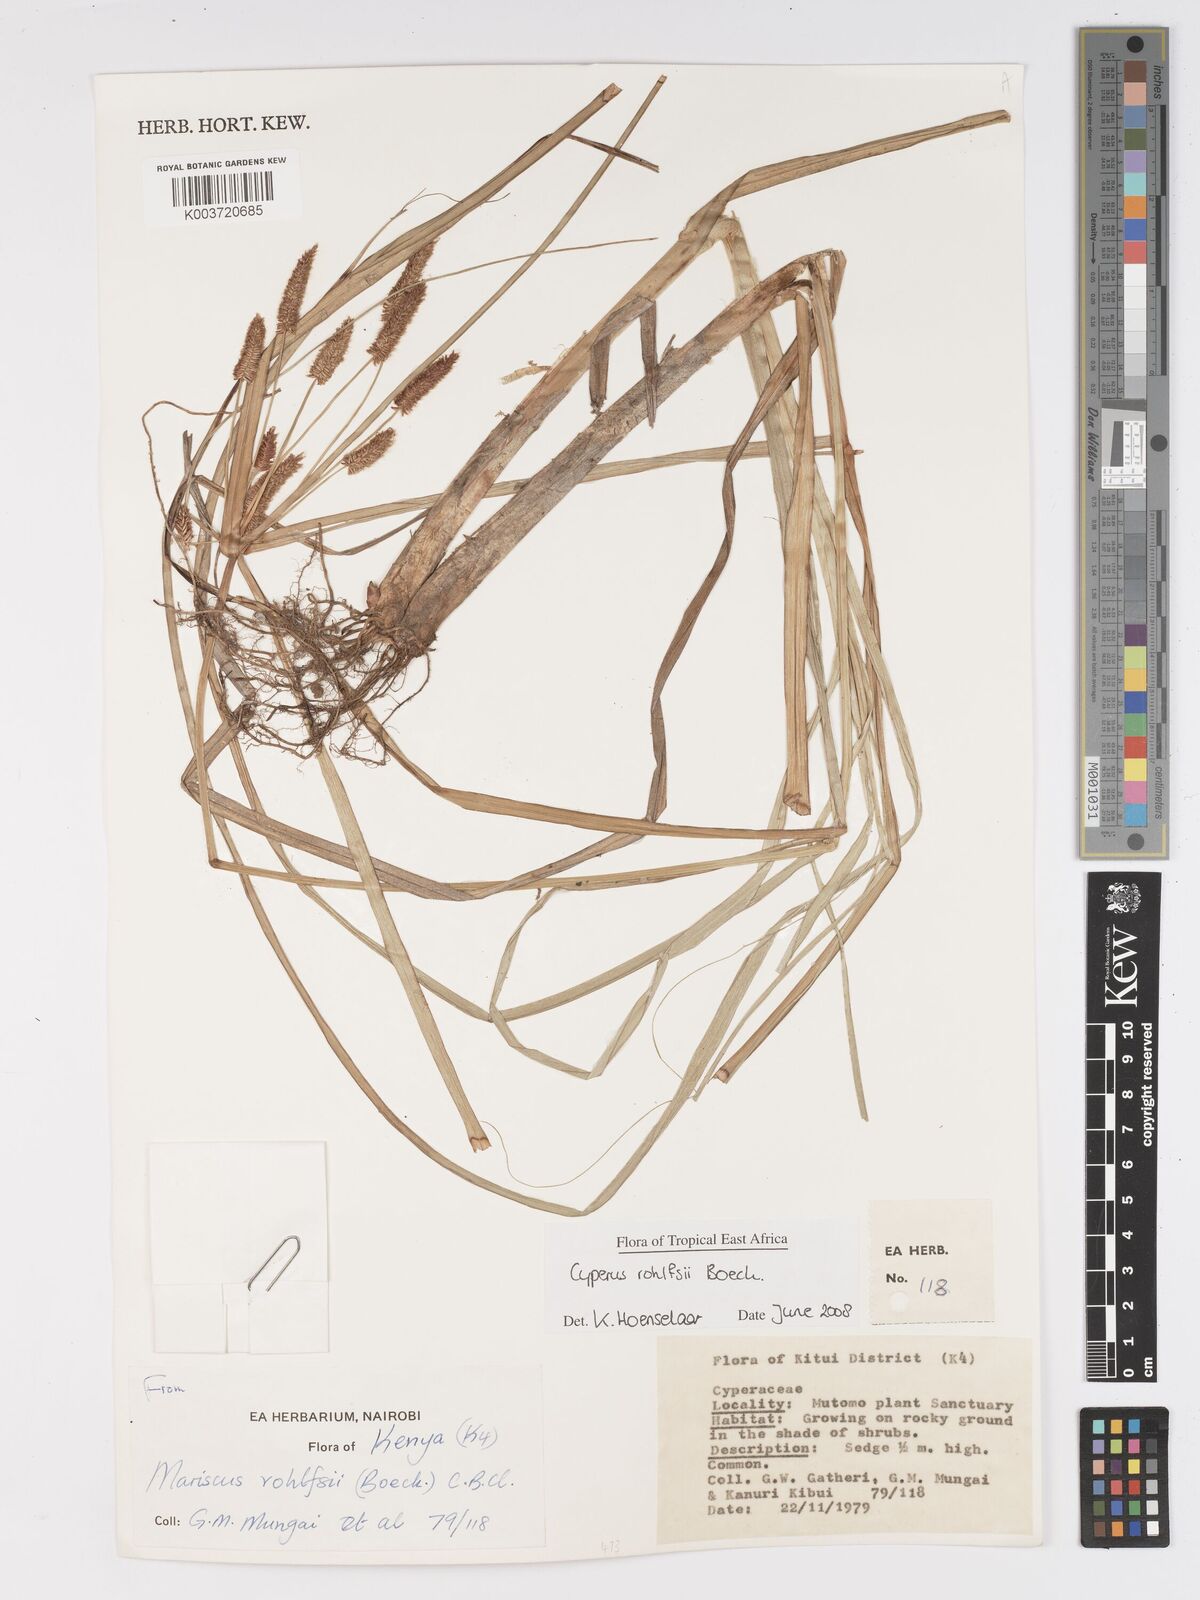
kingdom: Plantae
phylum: Tracheophyta
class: Liliopsida
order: Poales
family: Cyperaceae
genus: Cyperus
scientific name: Cyperus rohlfsii
